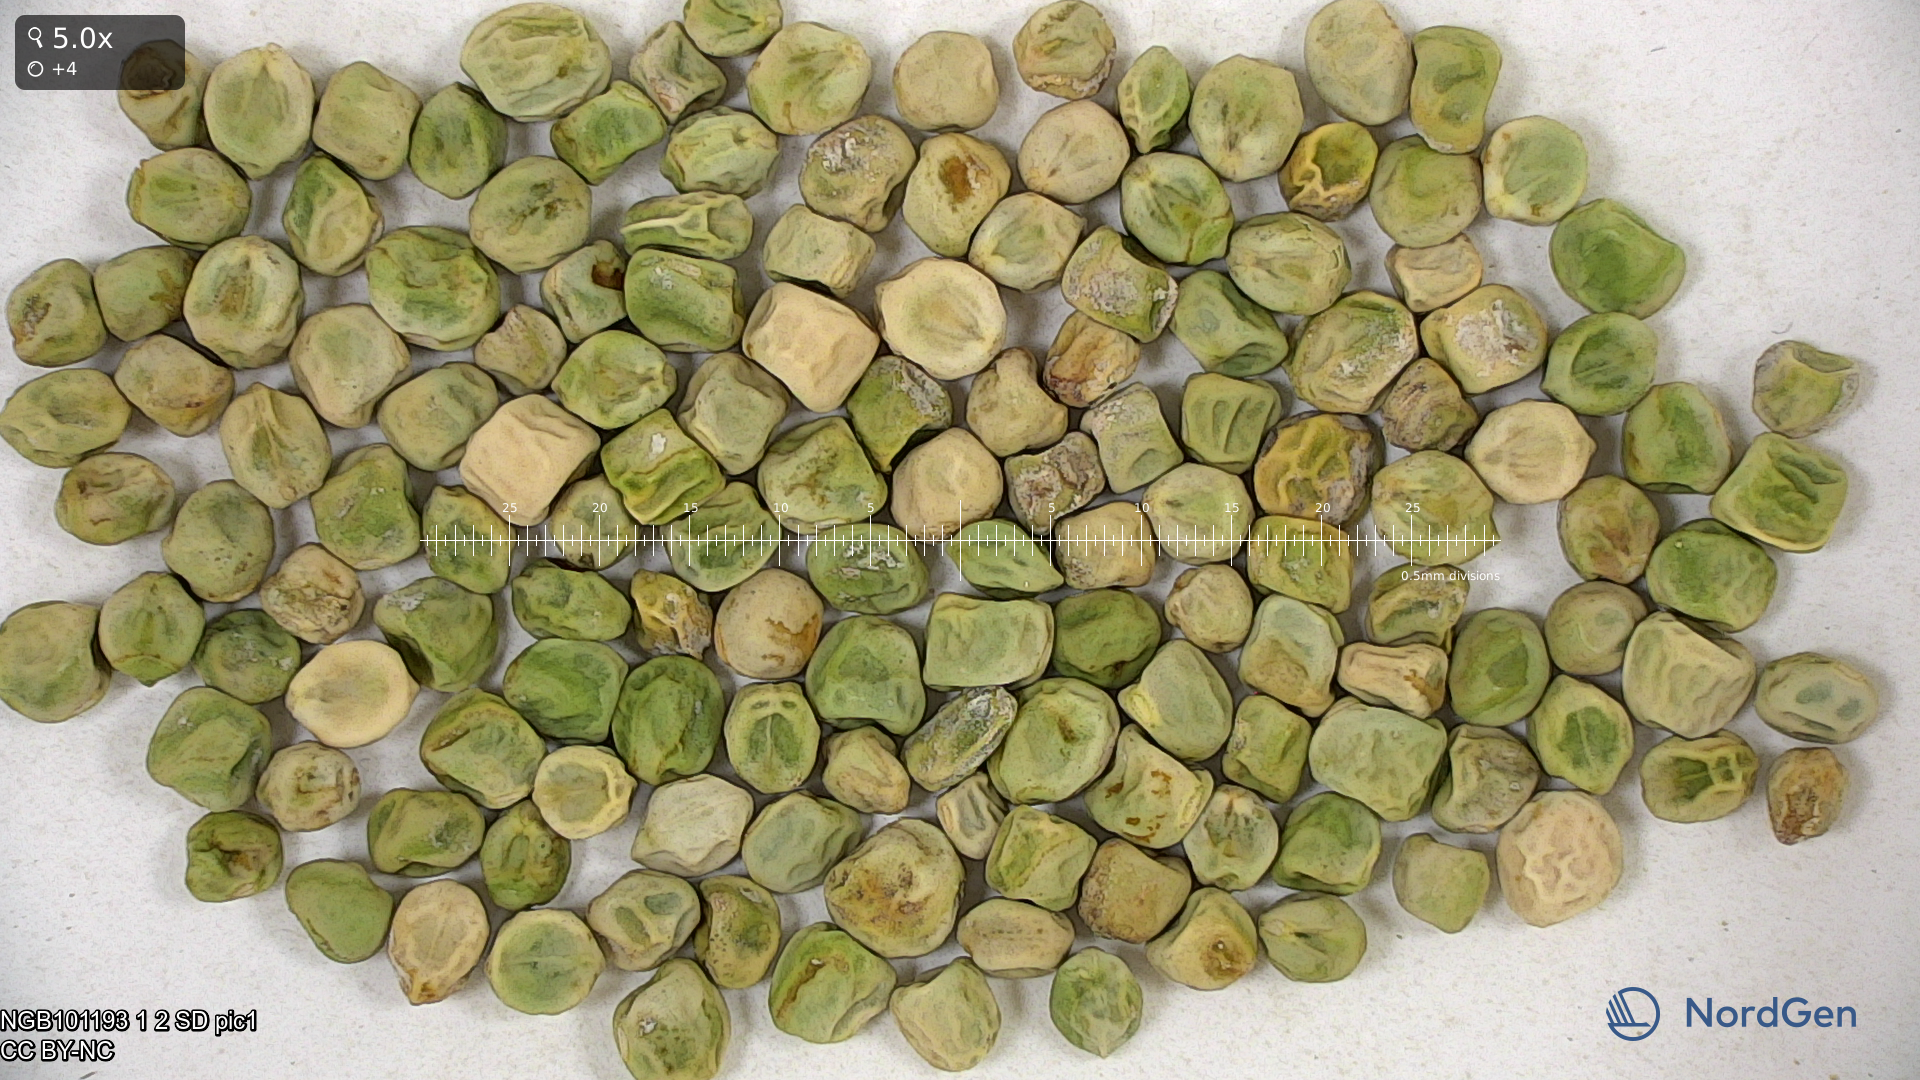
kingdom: Plantae
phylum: Tracheophyta
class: Magnoliopsida
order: Fabales
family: Fabaceae
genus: Lathyrus
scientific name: Lathyrus oleraceus
